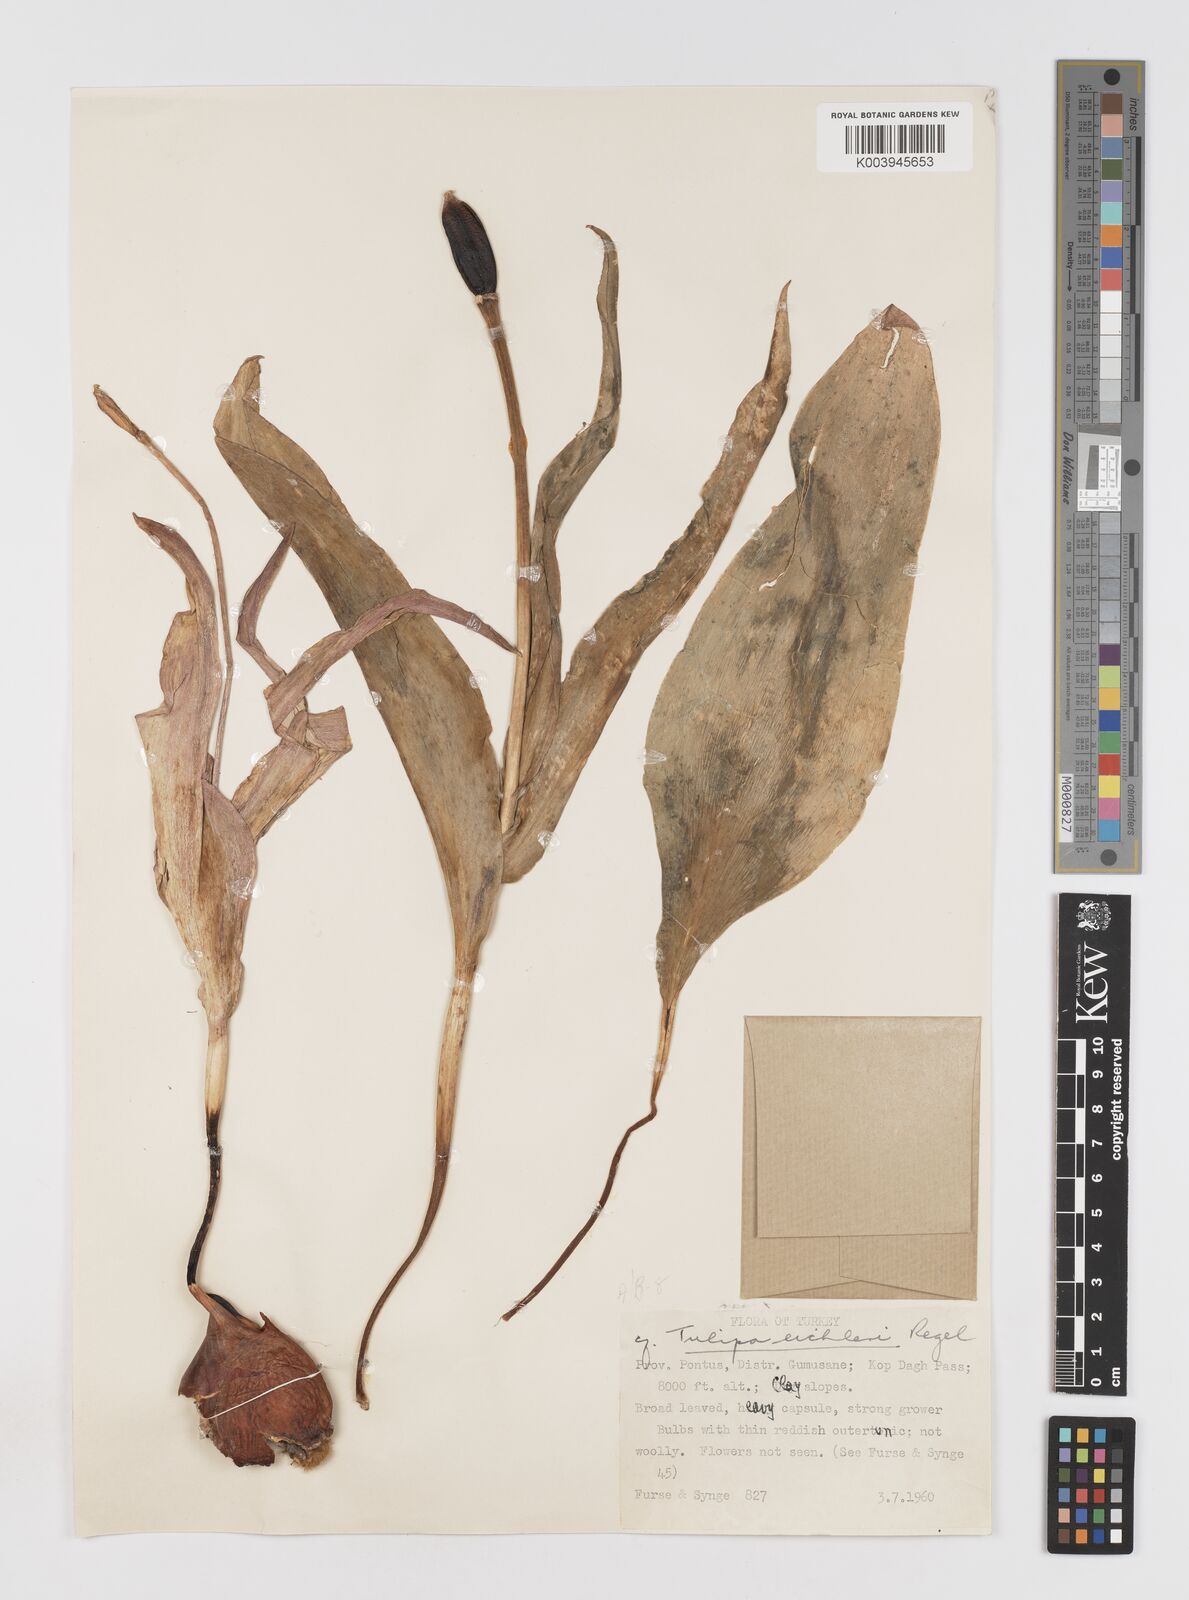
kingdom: Plantae
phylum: Tracheophyta
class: Liliopsida
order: Liliales
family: Liliaceae
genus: Tulipa
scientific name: Tulipa aleppensis
